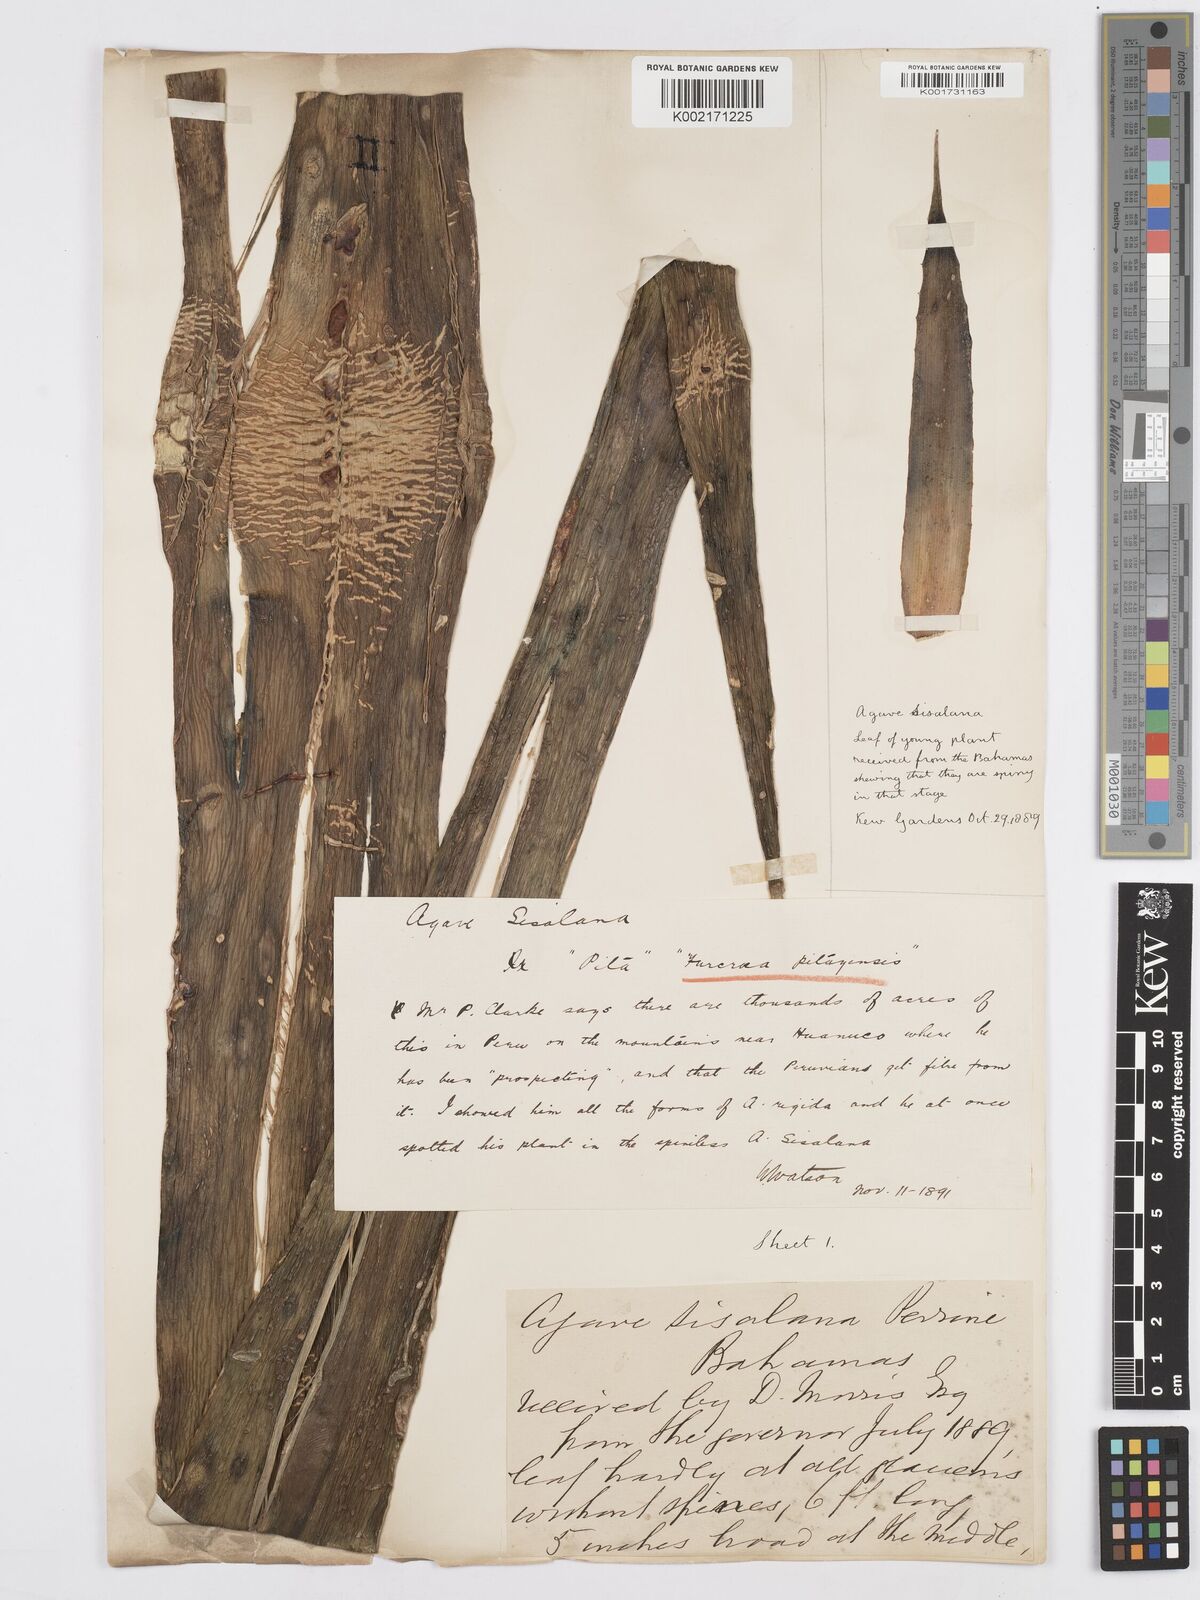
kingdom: Plantae
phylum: Tracheophyta
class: Liliopsida
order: Asparagales
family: Asparagaceae
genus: Agave
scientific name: Agave sisalana
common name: Sisal hemp
